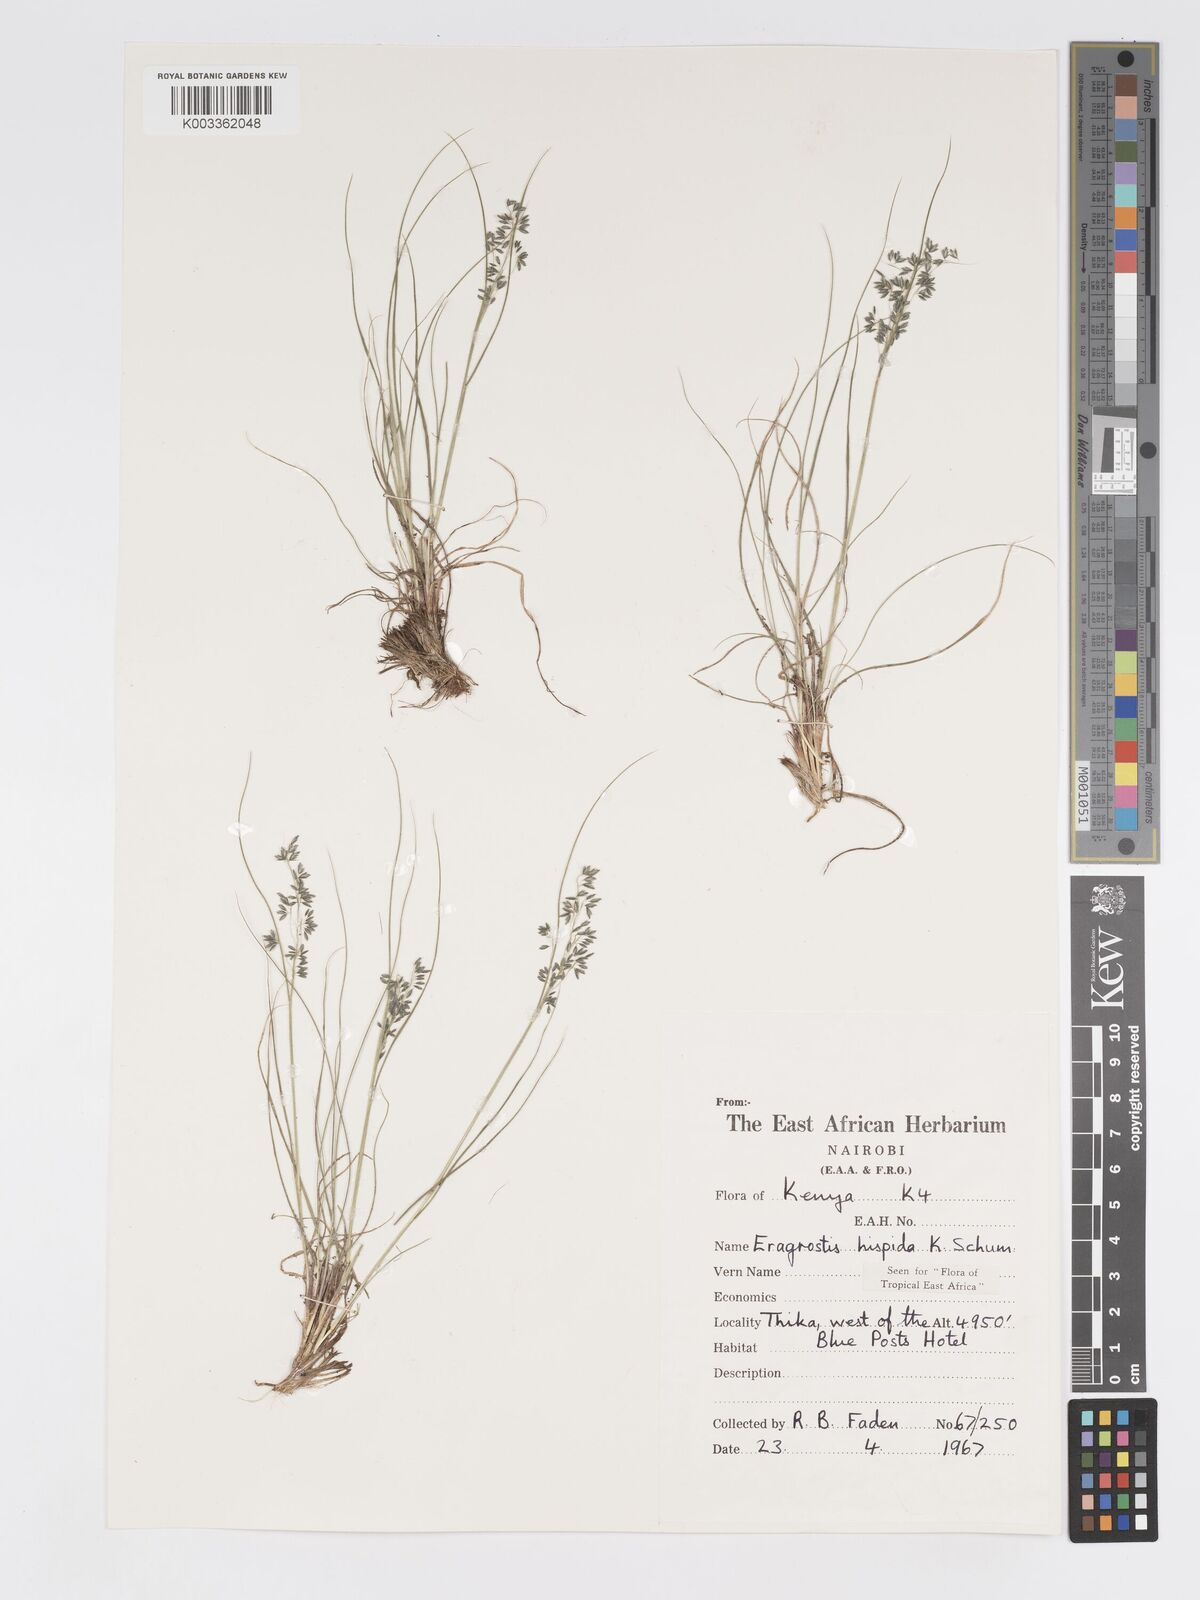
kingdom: Plantae
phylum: Tracheophyta
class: Liliopsida
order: Poales
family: Poaceae
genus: Eragrostis
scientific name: Eragrostis hispida
